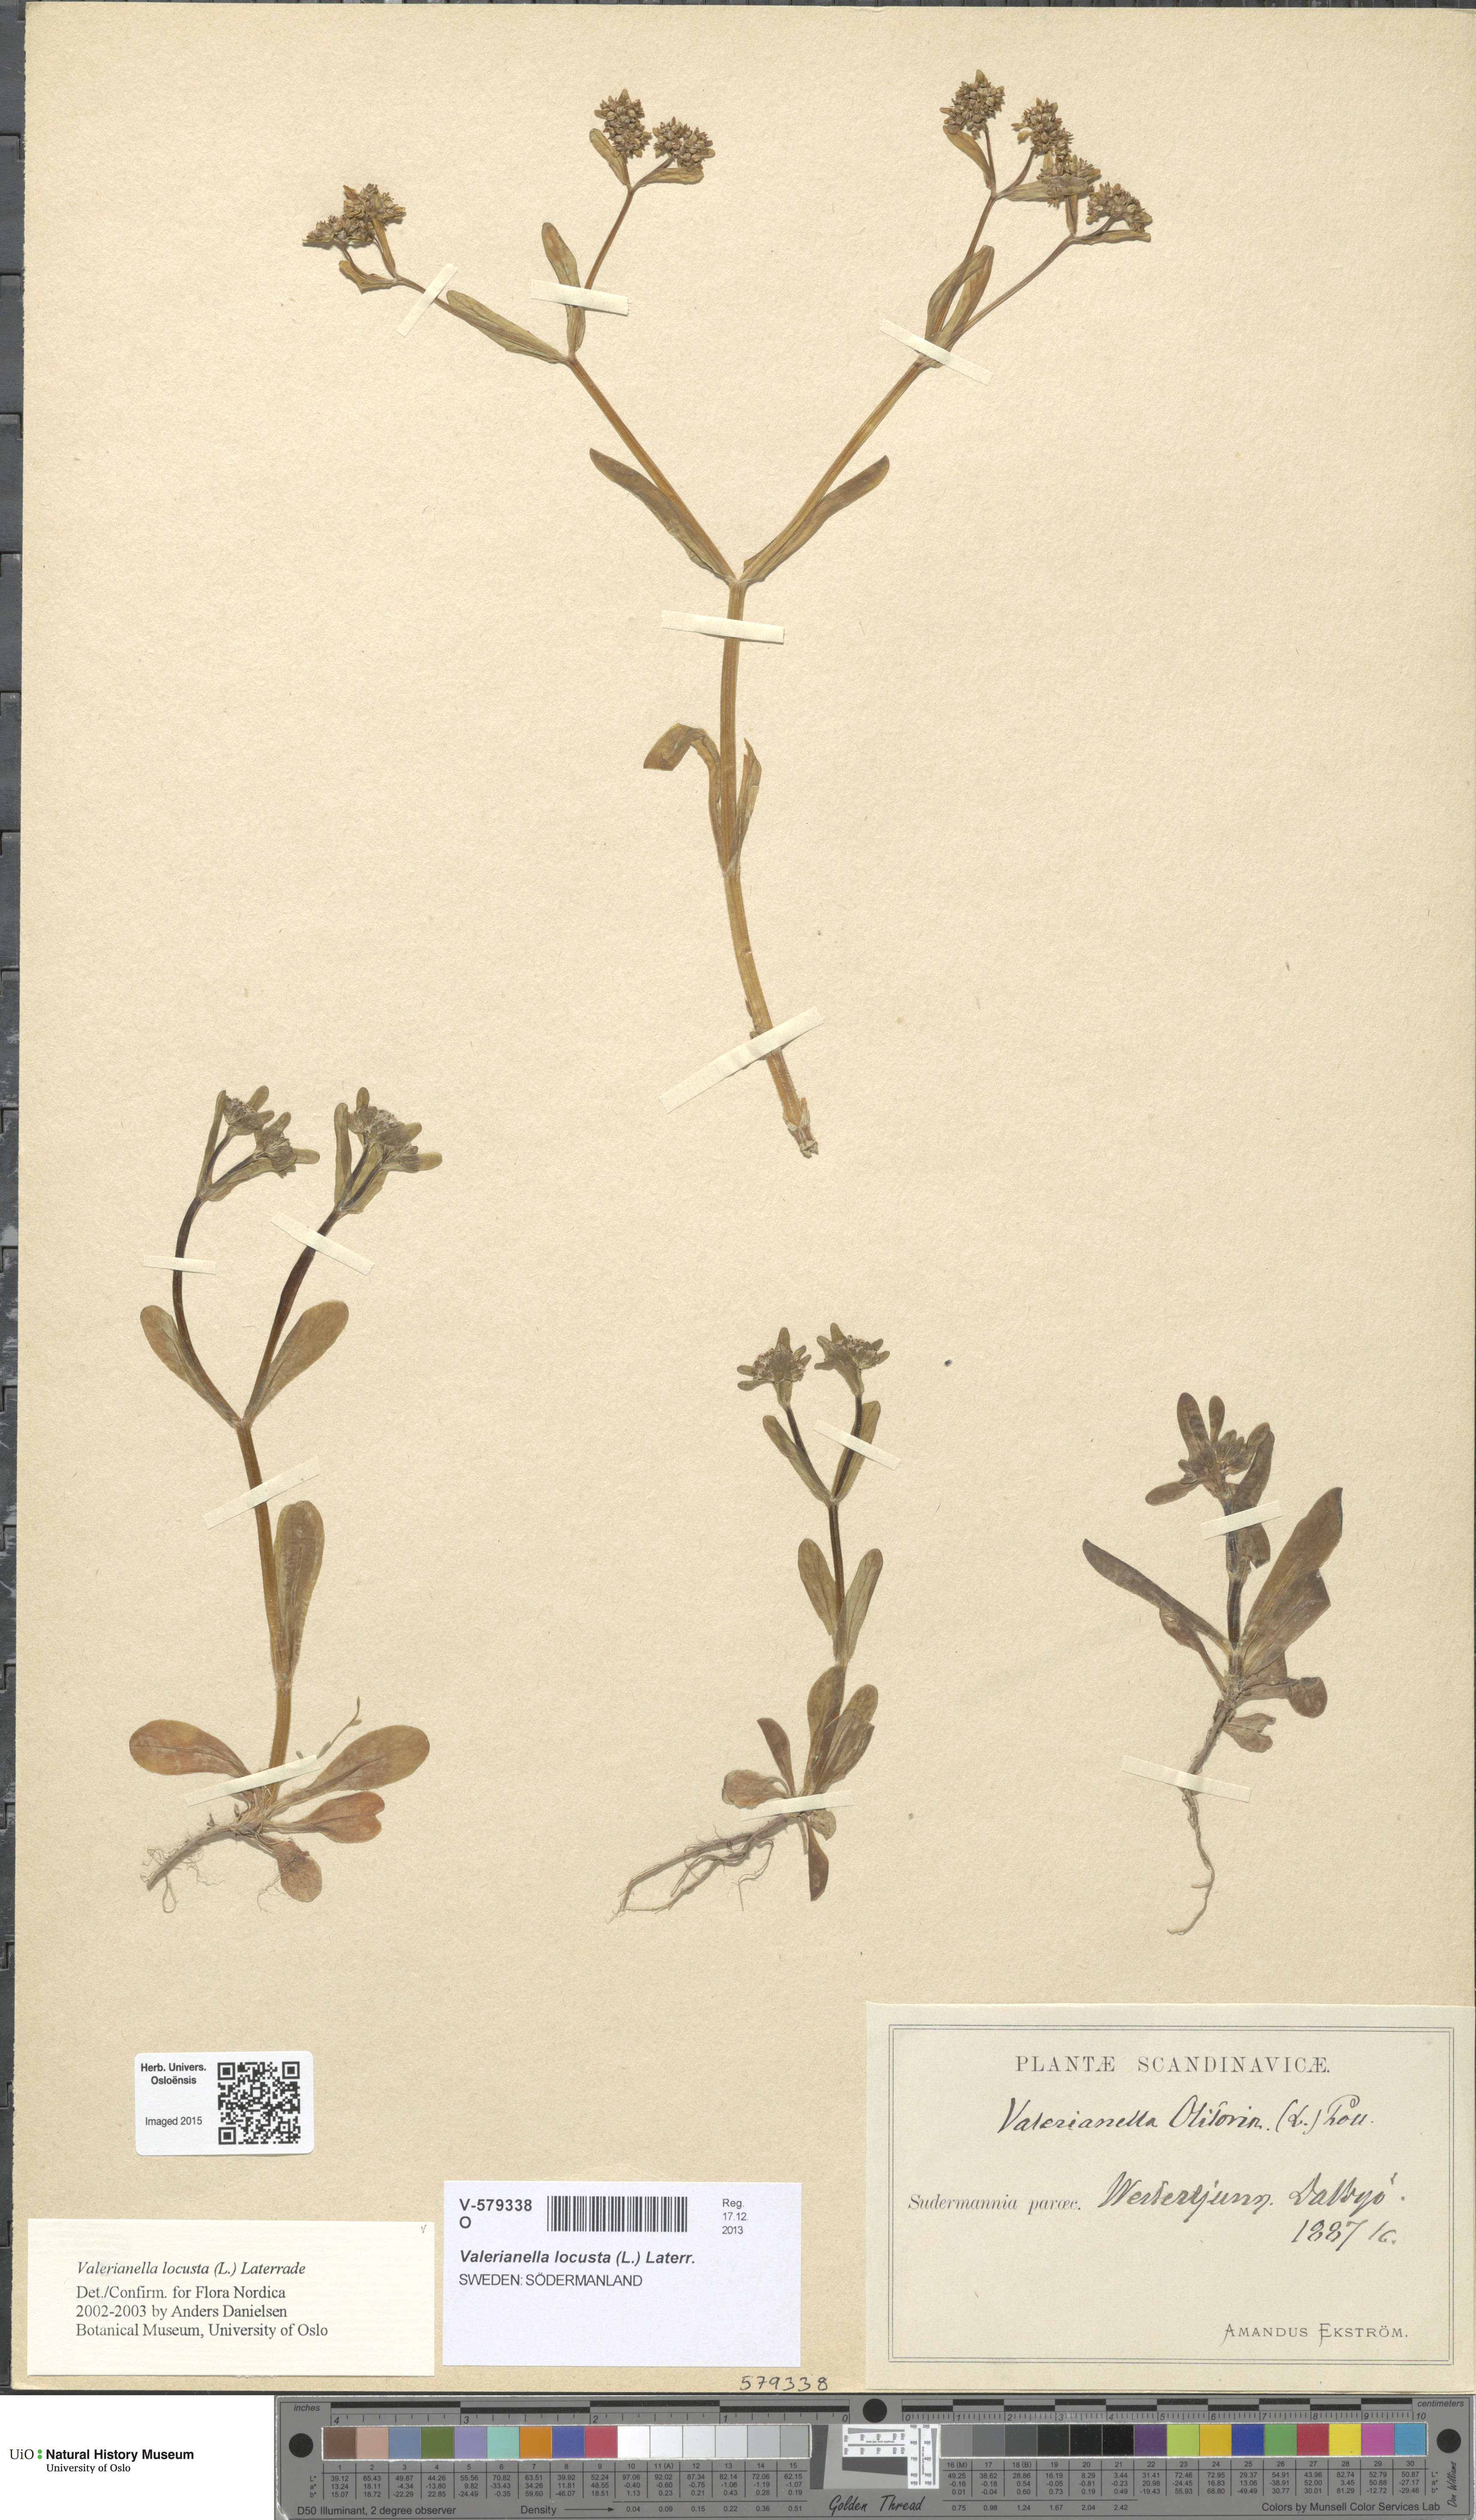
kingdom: Plantae
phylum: Tracheophyta
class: Magnoliopsida
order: Dipsacales
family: Caprifoliaceae
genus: Valerianella
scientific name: Valerianella locusta
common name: Common cornsalad
